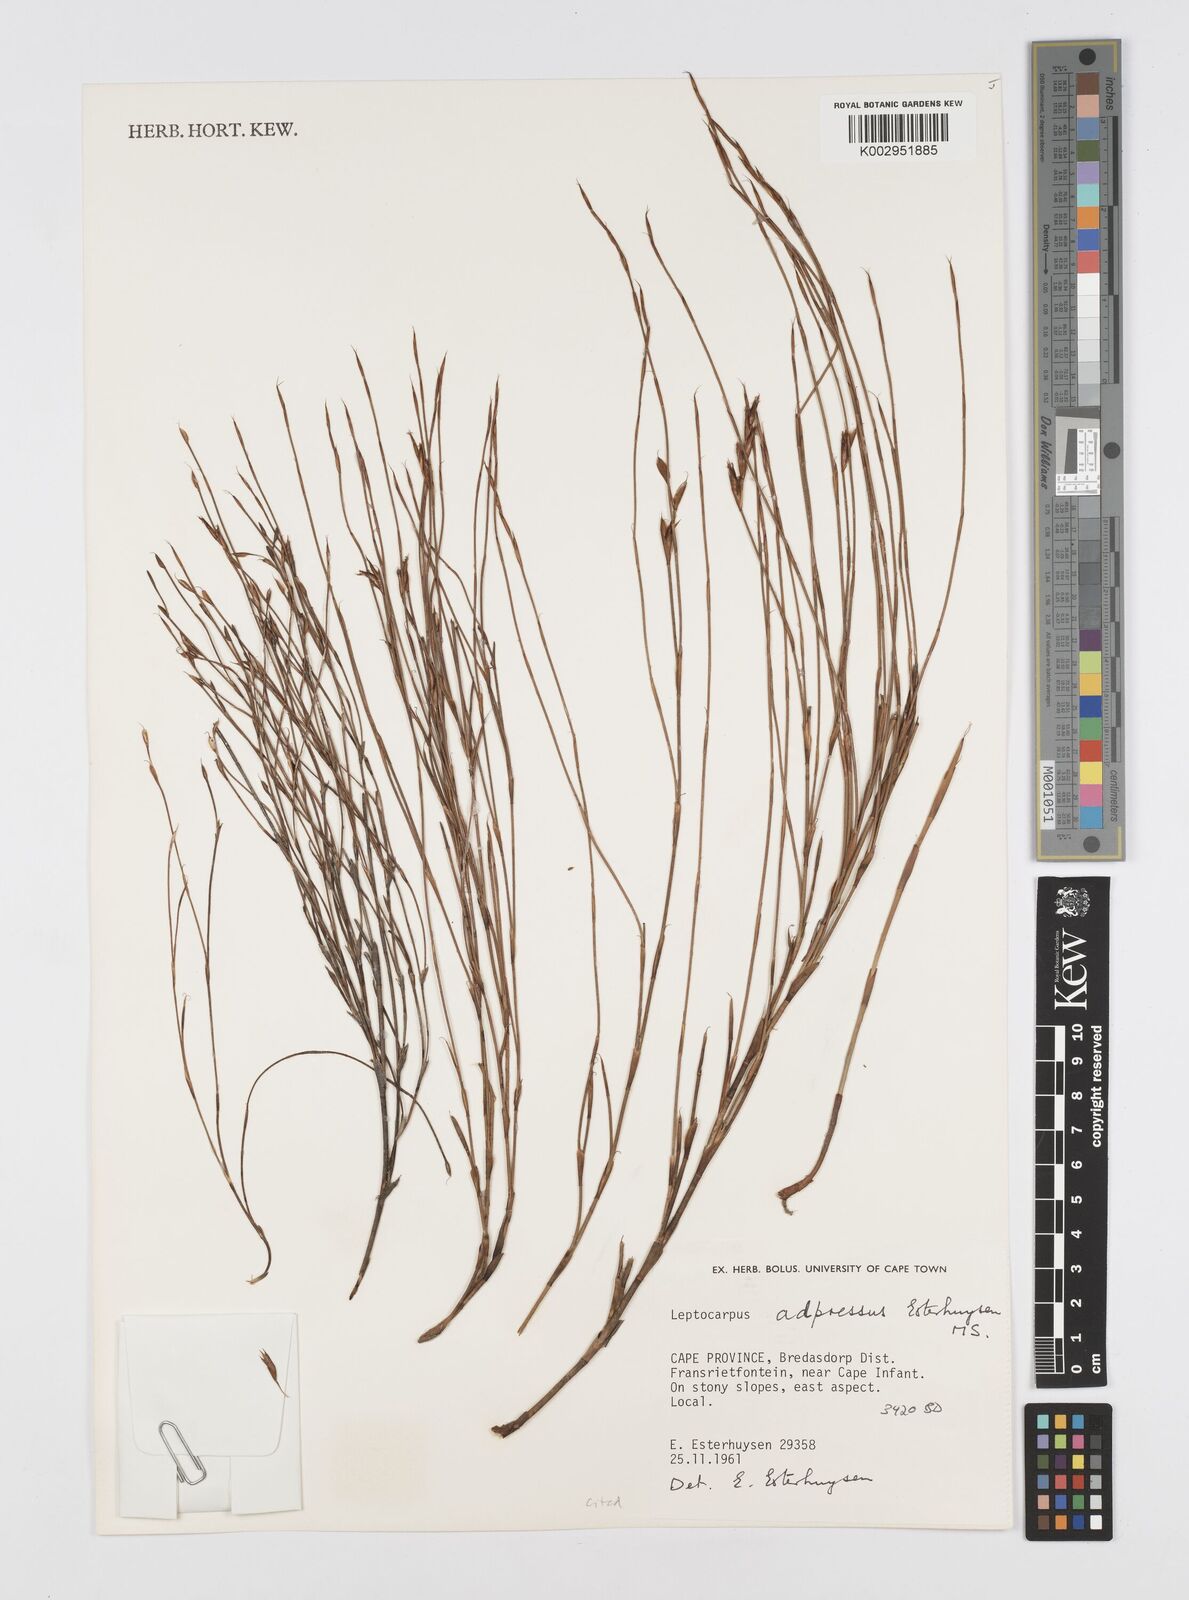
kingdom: Plantae
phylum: Tracheophyta
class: Liliopsida
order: Poales
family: Restionaceae
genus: Restio
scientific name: Restio adpressus
